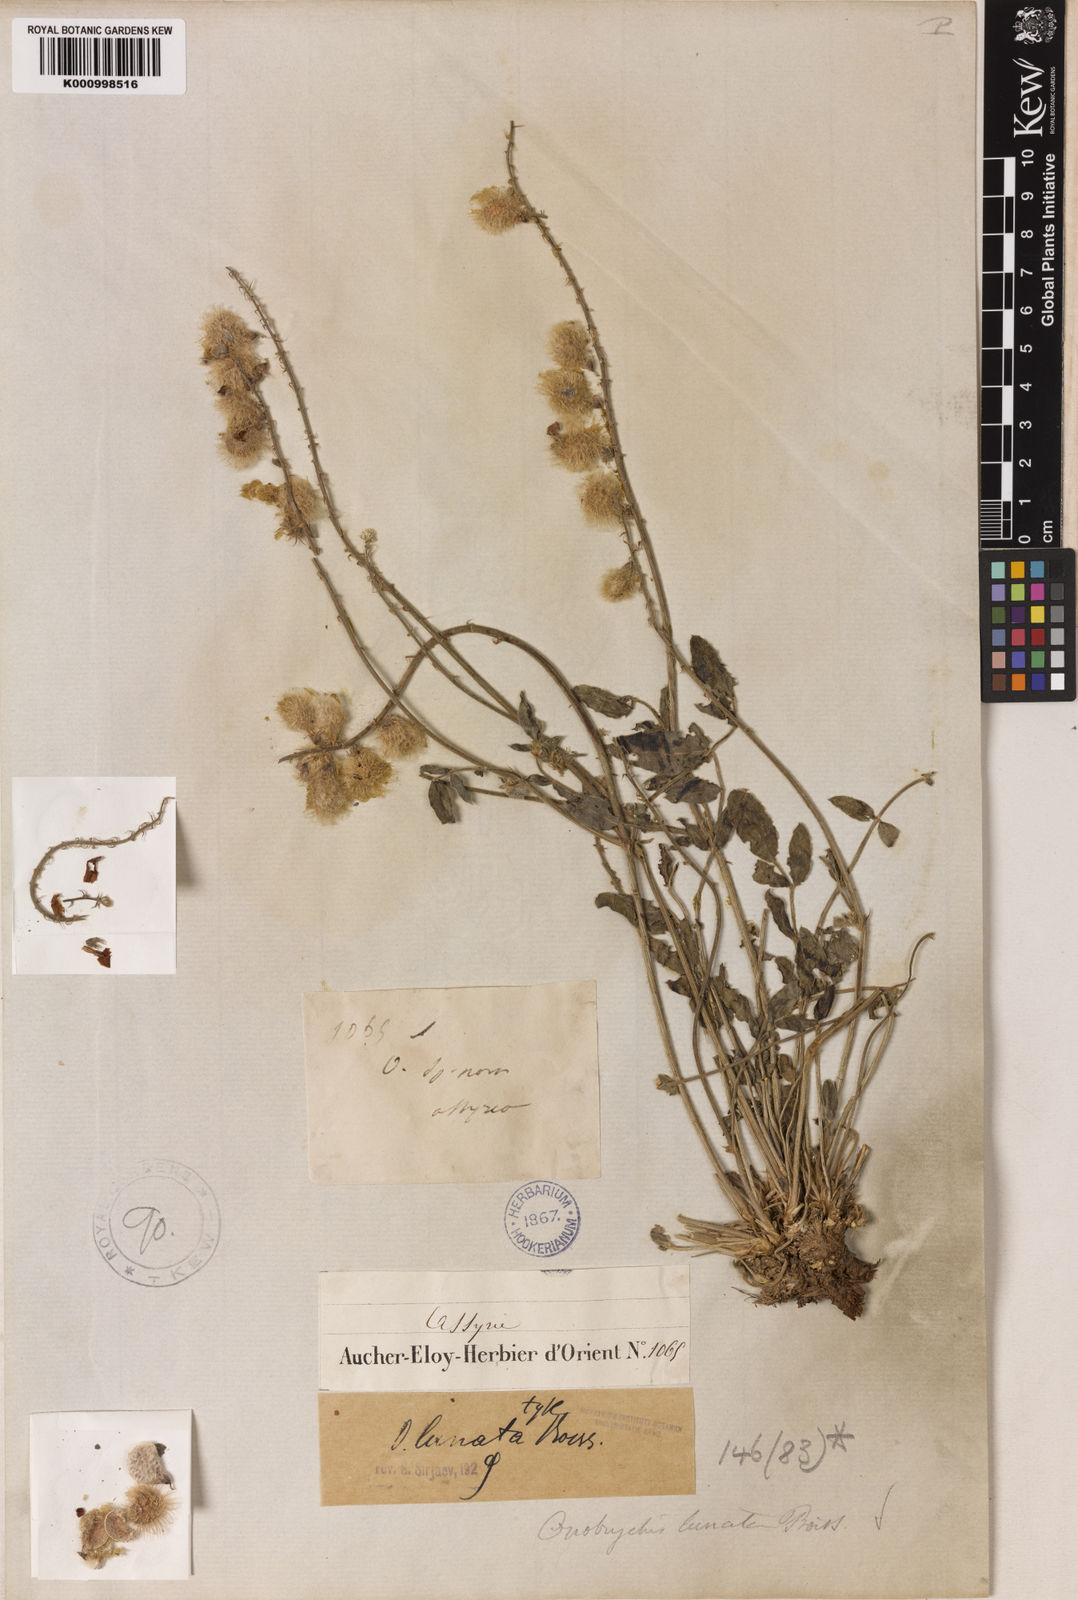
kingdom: Plantae
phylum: Tracheophyta
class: Magnoliopsida
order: Fabales
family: Fabaceae
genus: Onobrychis
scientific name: Onobrychis lunata
